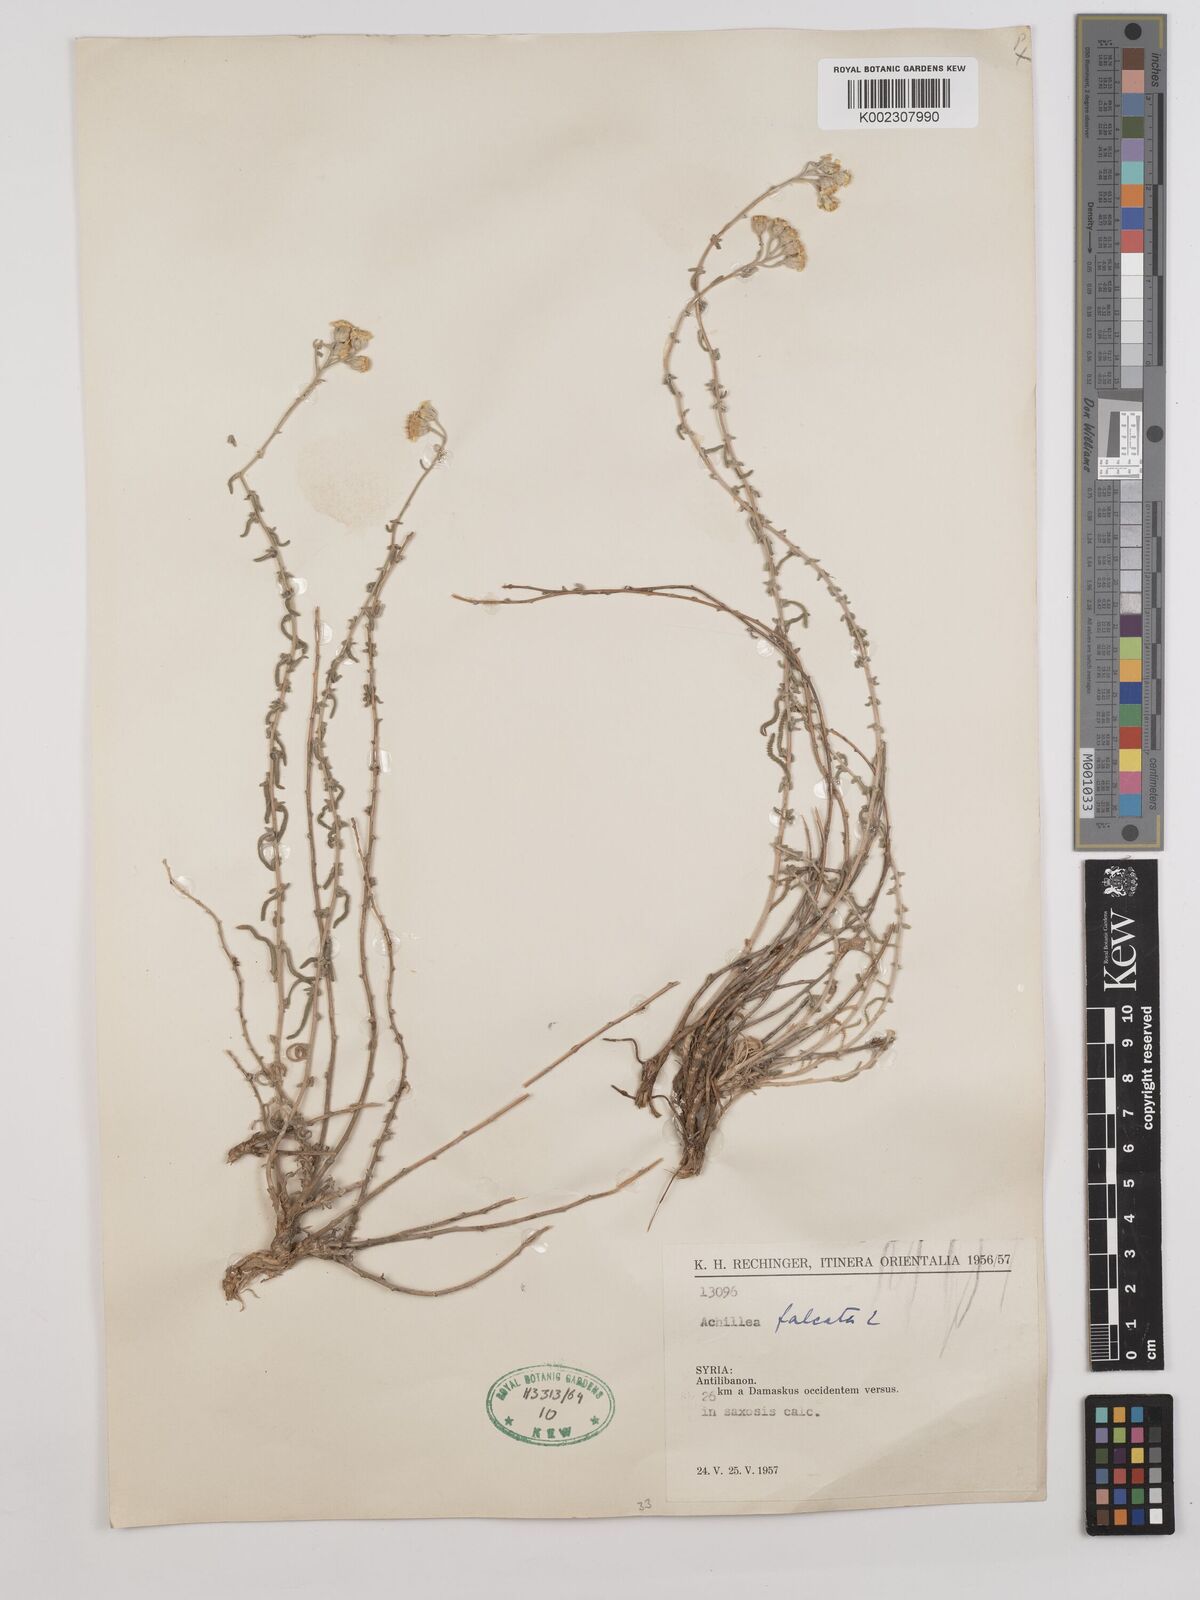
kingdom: Plantae
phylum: Tracheophyta
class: Magnoliopsida
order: Asterales
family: Asteraceae
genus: Achillea
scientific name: Achillea falcata
